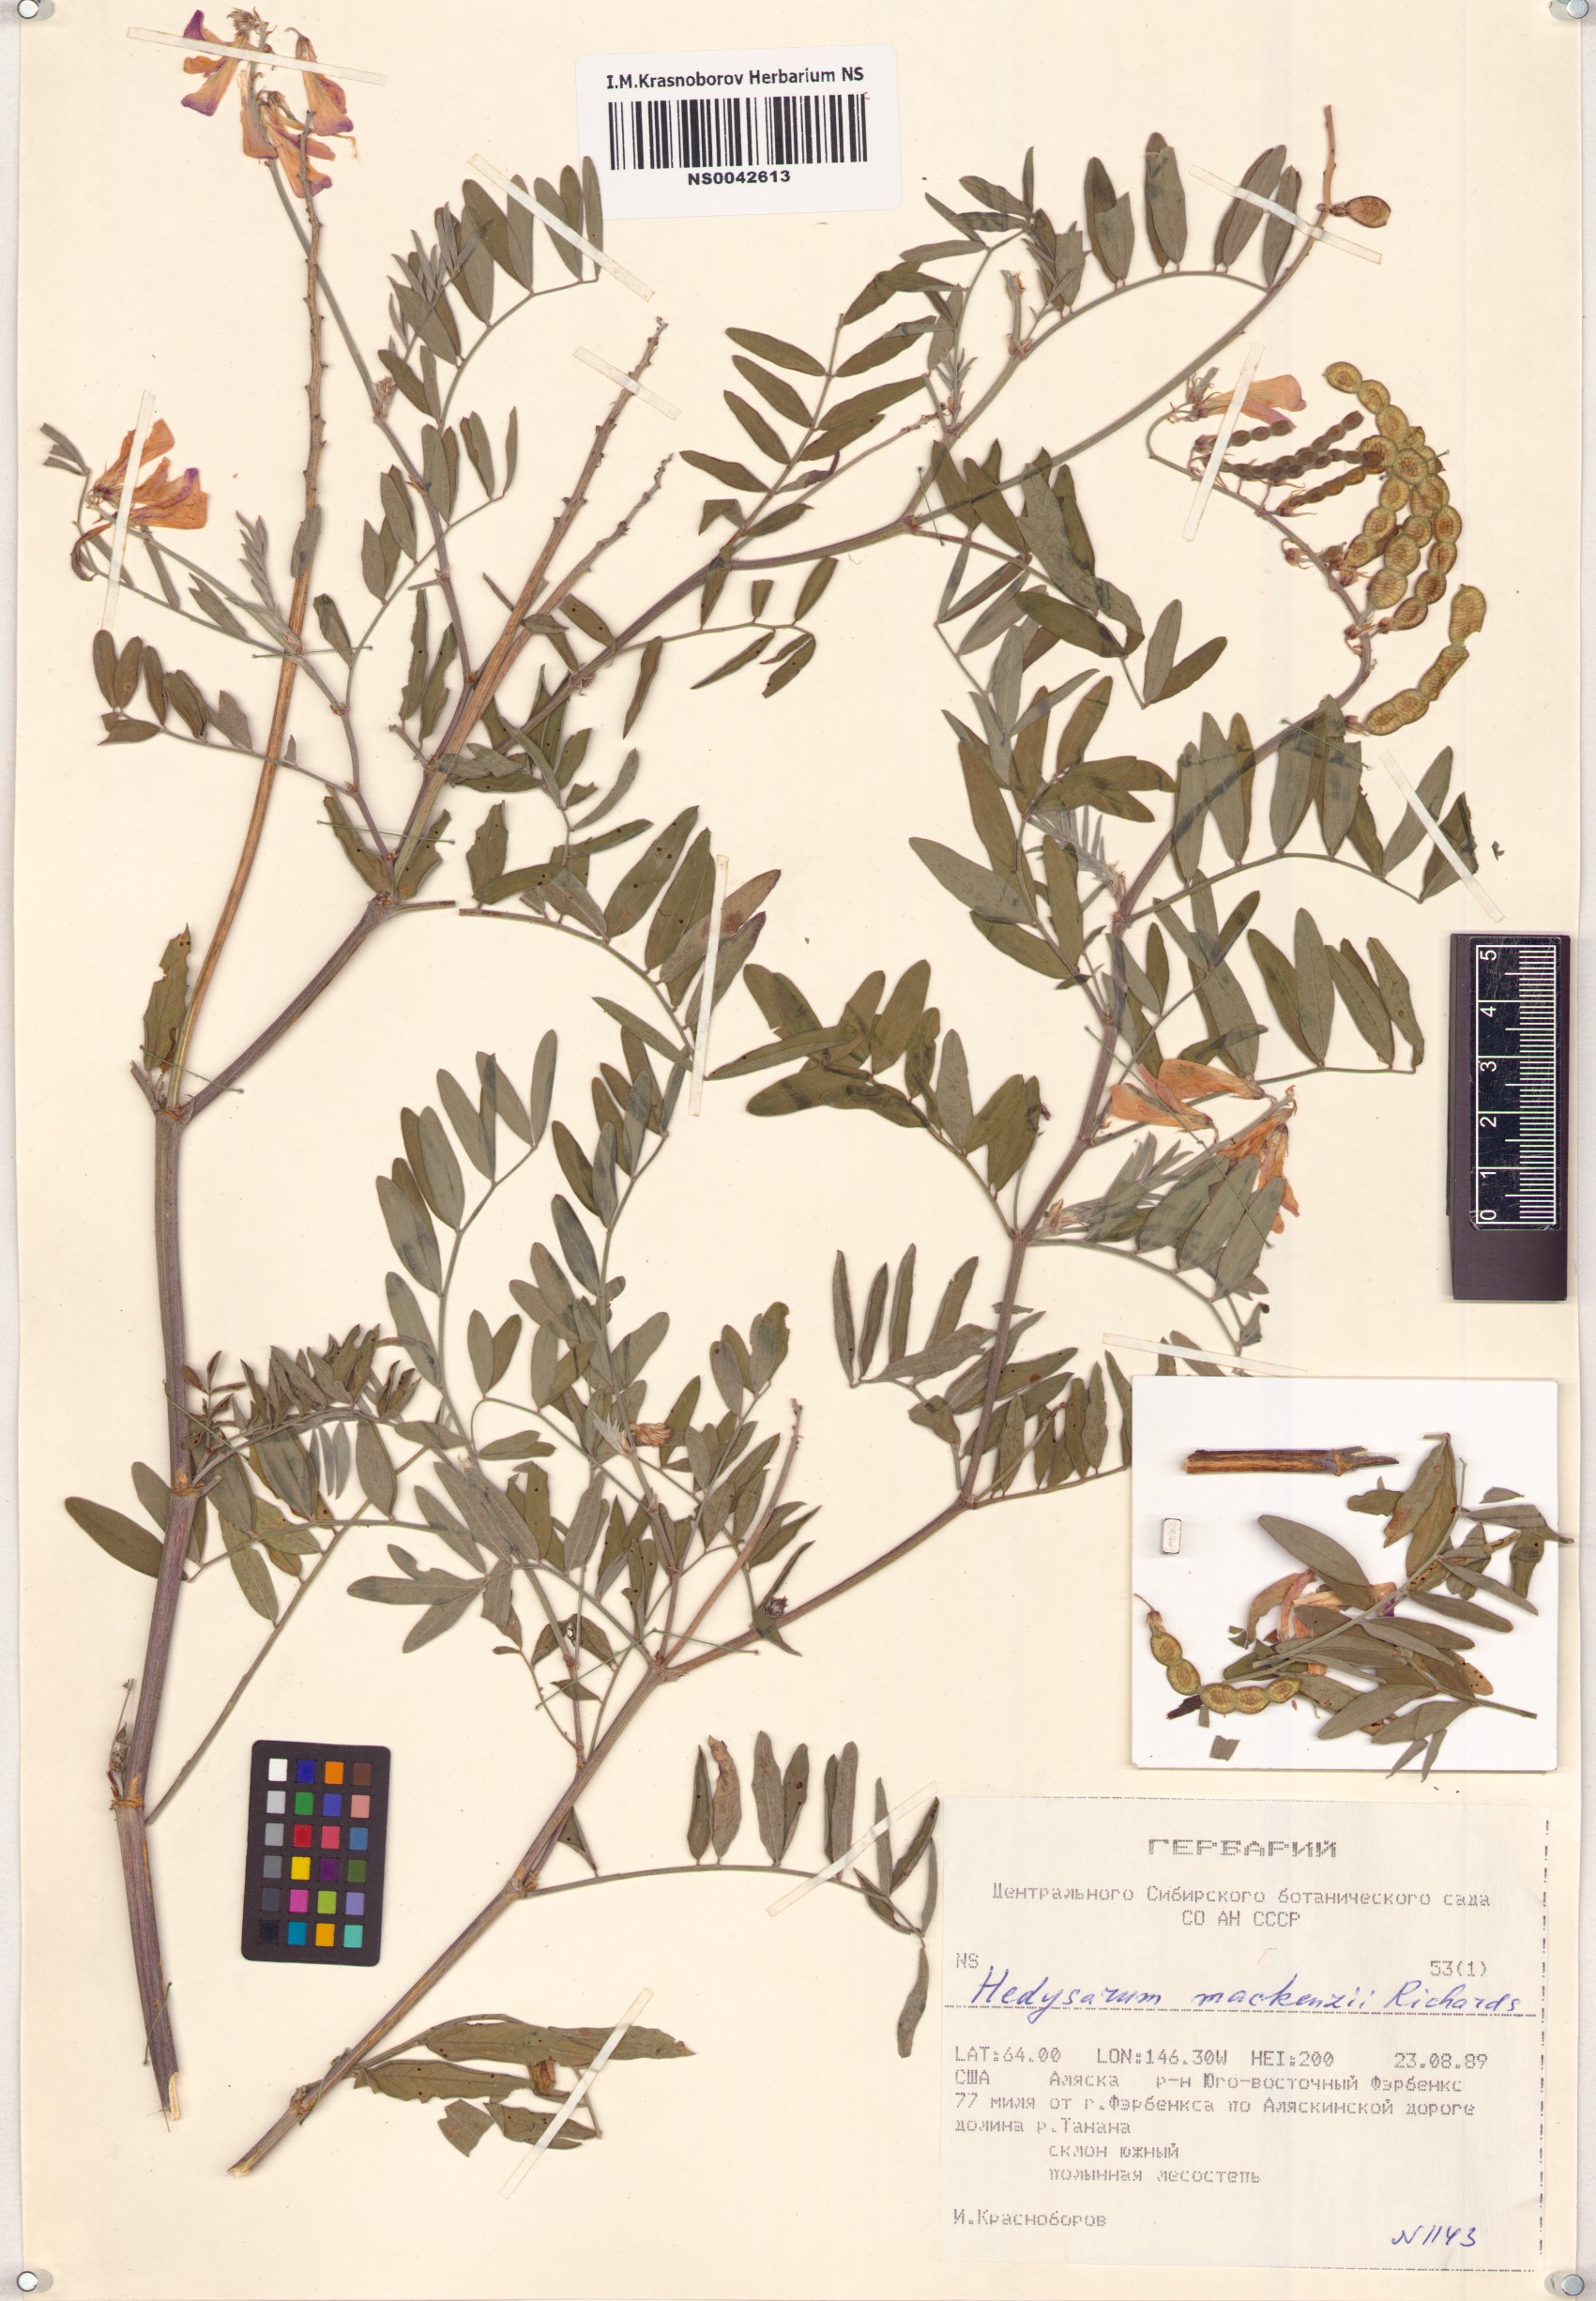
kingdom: Plantae
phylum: Tracheophyta
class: Magnoliopsida
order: Fabales
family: Fabaceae
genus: Hedysarum
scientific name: Hedysarum boreale
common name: Northern sweet-vetch
